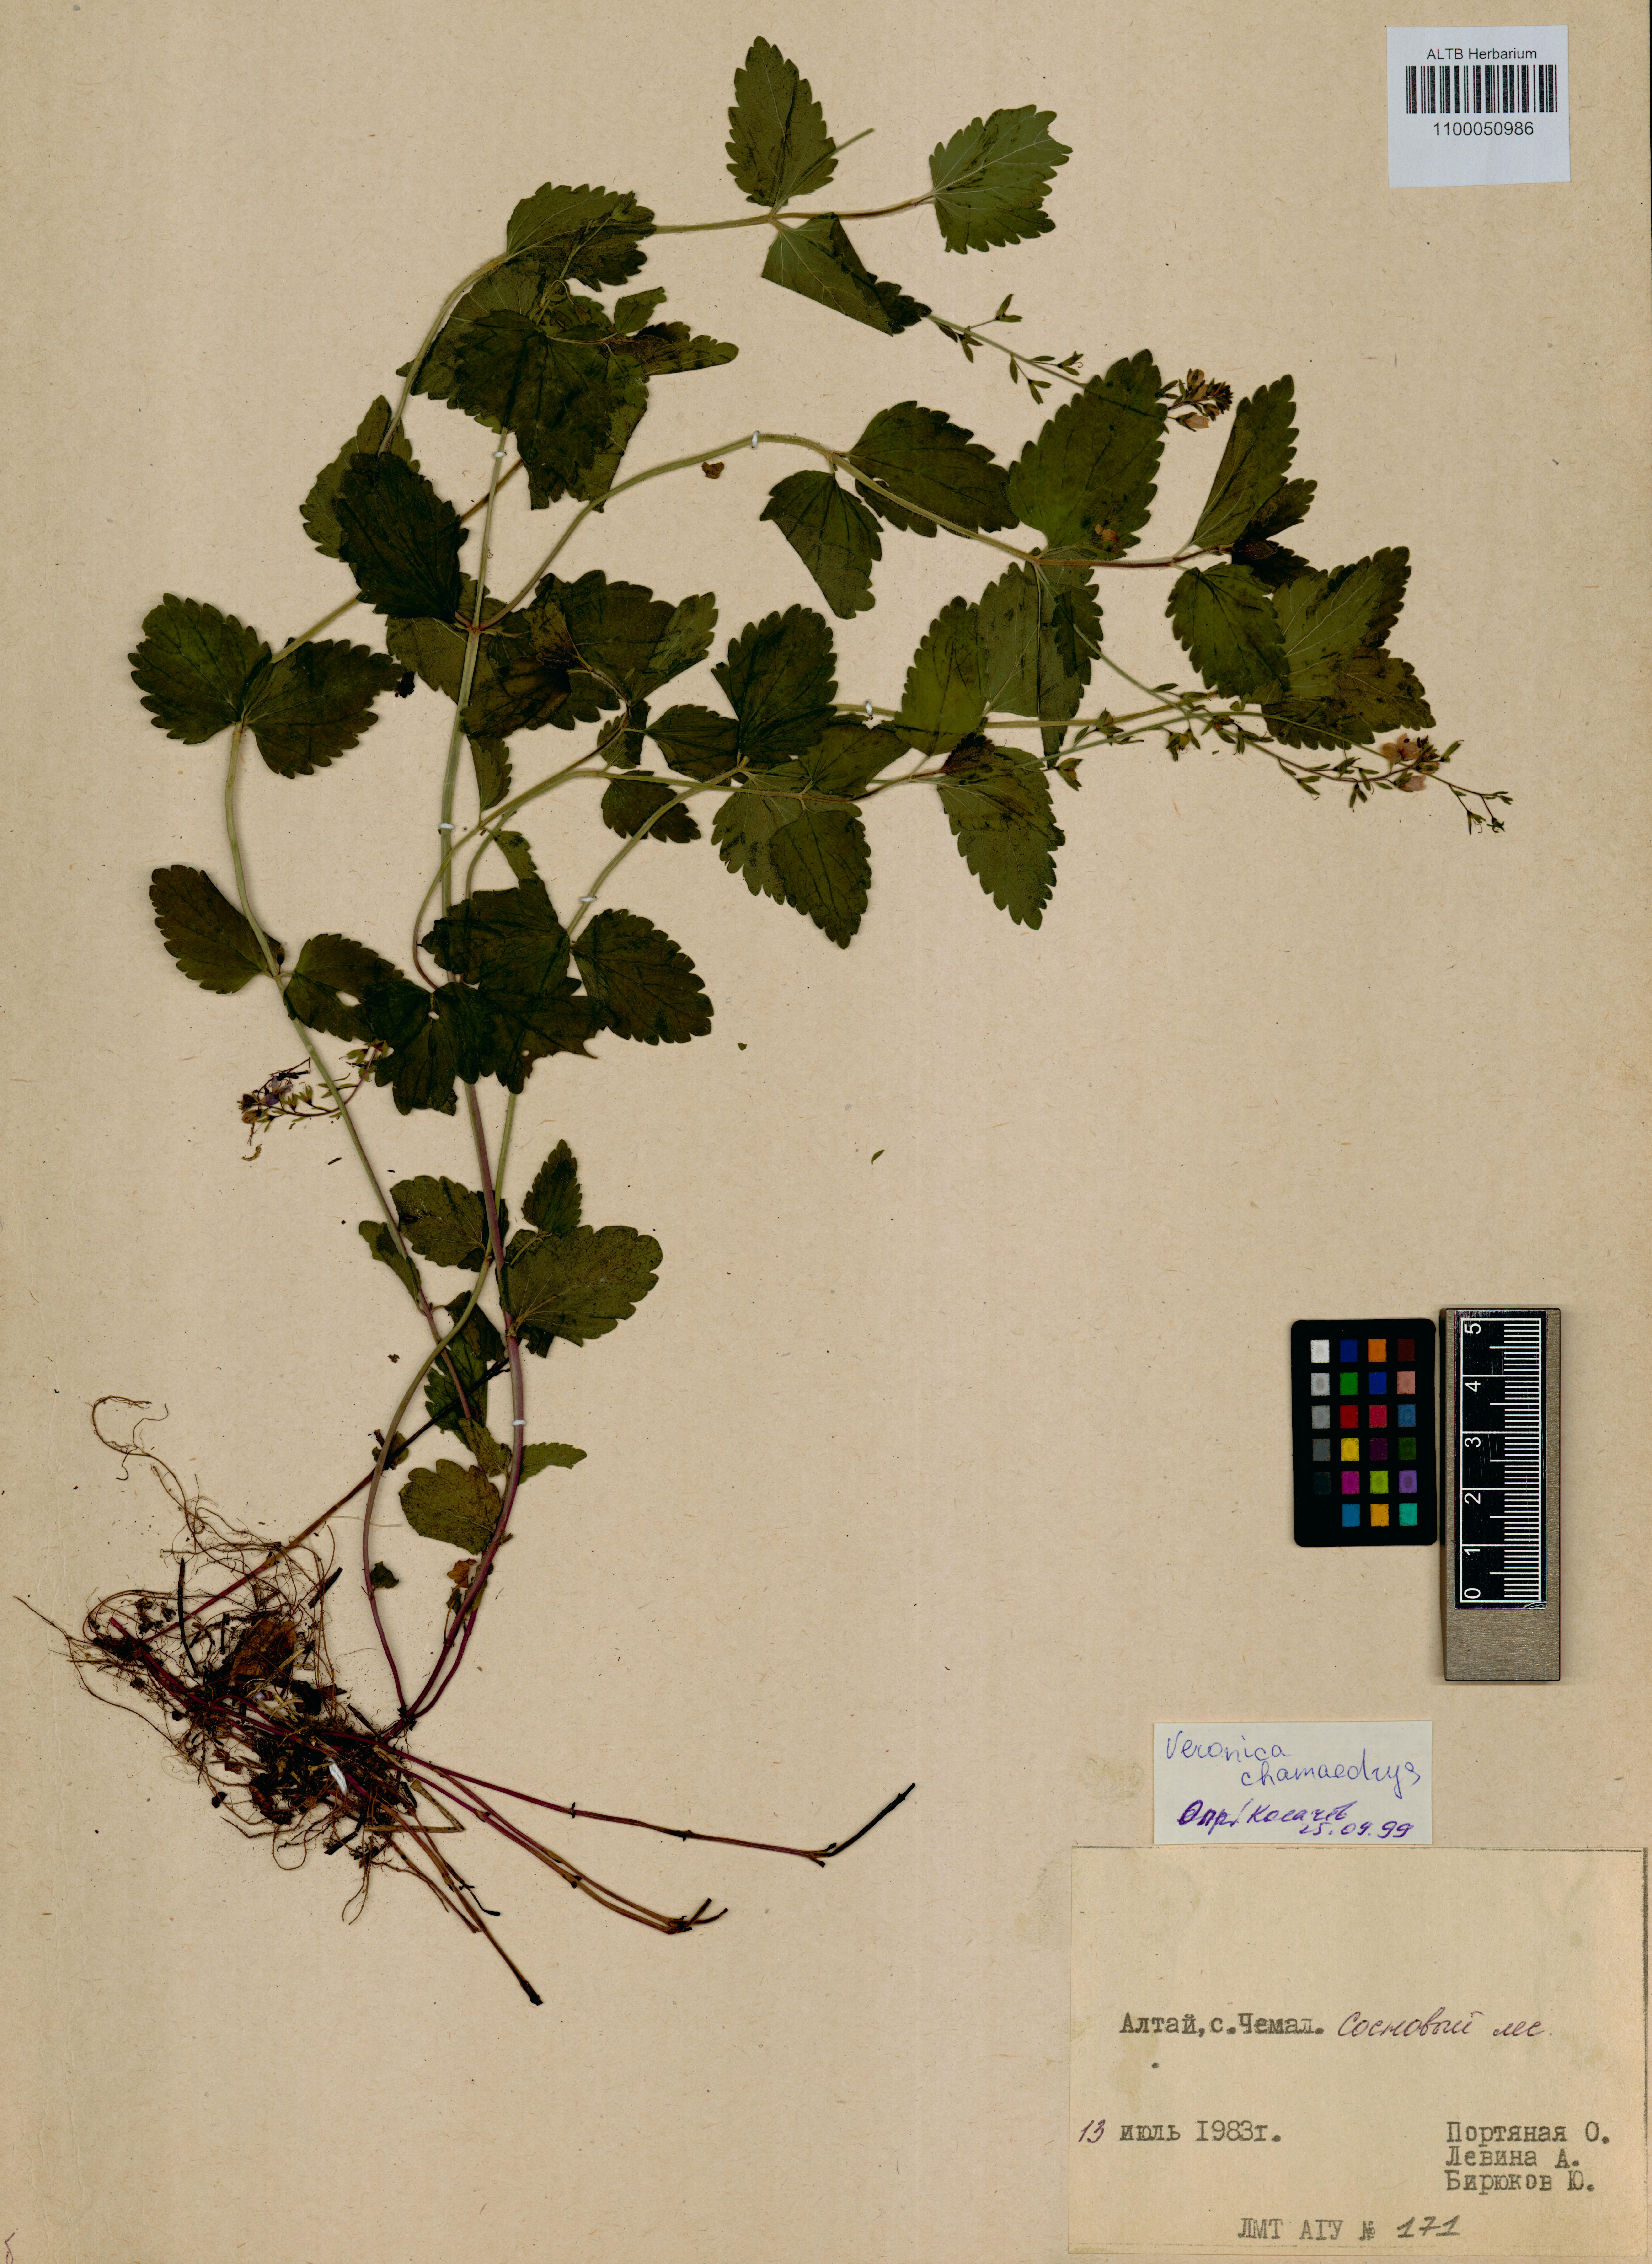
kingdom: Plantae
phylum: Tracheophyta
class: Magnoliopsida
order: Lamiales
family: Plantaginaceae
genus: Veronica
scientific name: Veronica chamaedrys
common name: Germander speedwell
